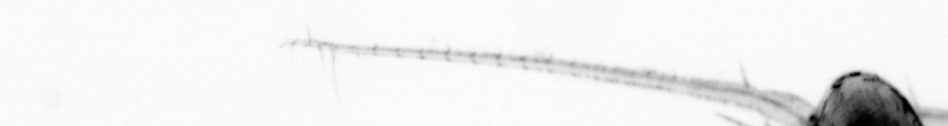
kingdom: Animalia
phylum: Arthropoda
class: Copepoda
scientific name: Copepoda
